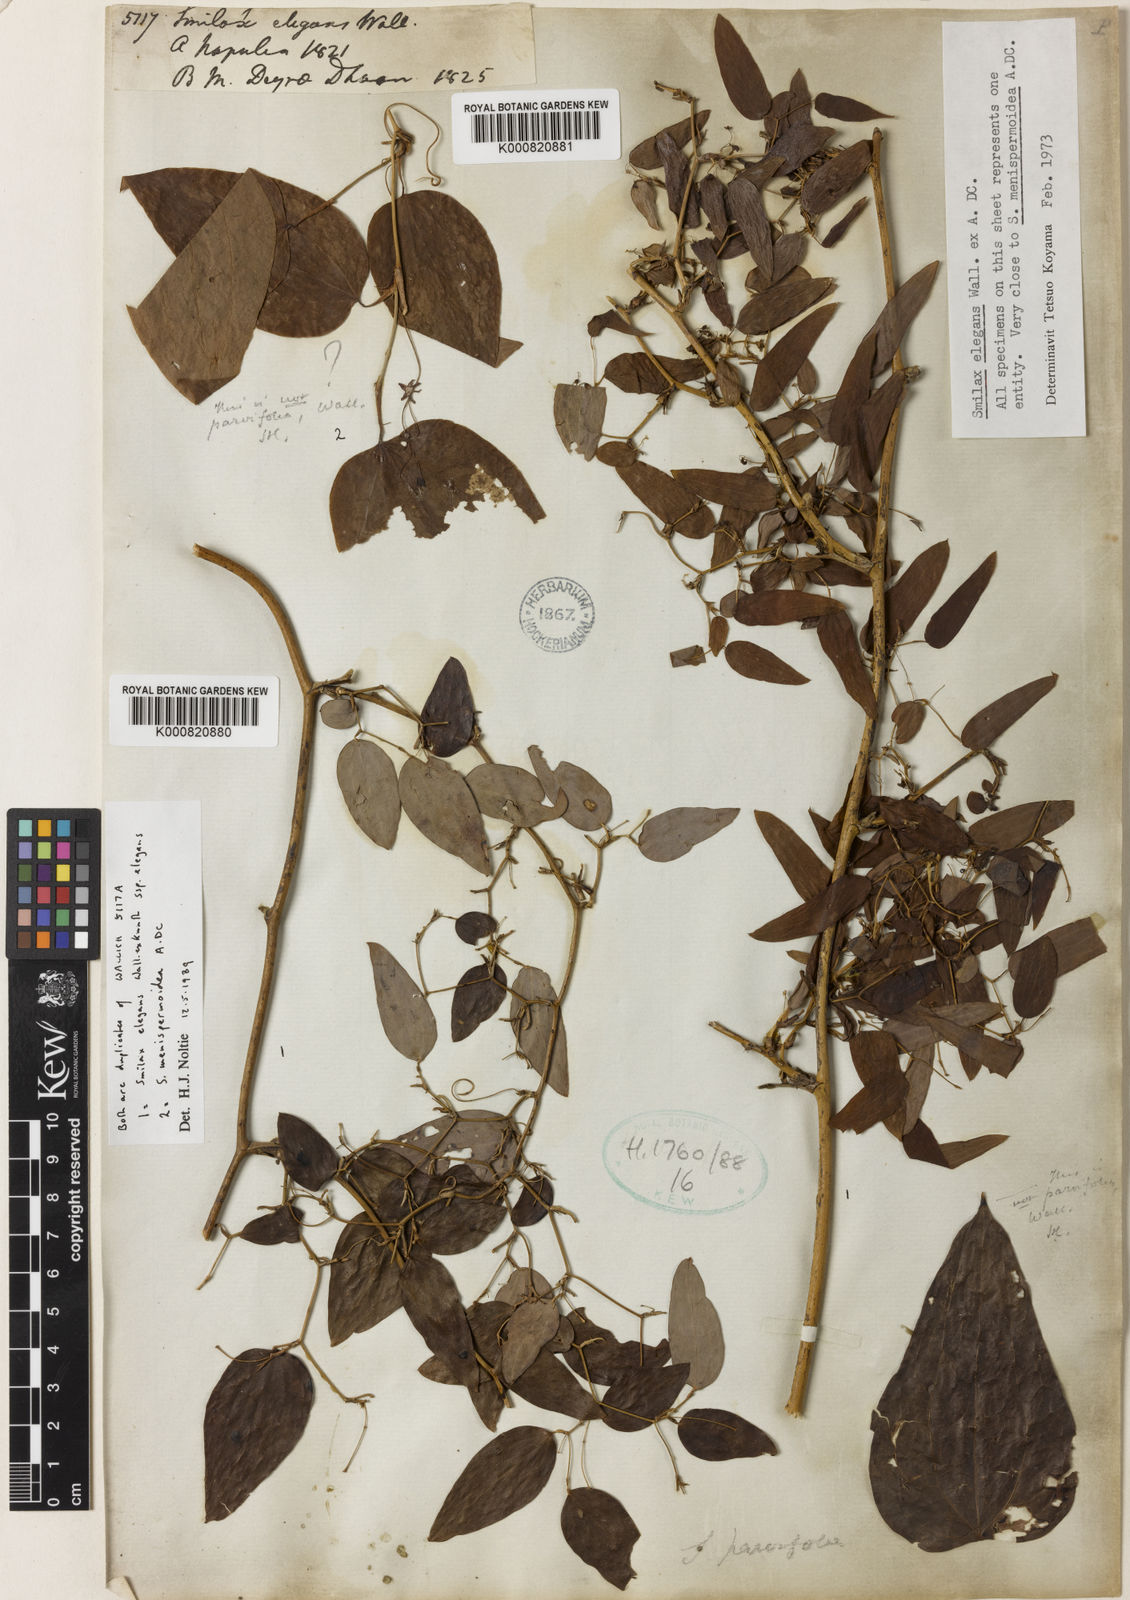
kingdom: Plantae
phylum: Tracheophyta
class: Liliopsida
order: Liliales
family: Smilacaceae
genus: Smilax
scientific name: Smilax elegans
